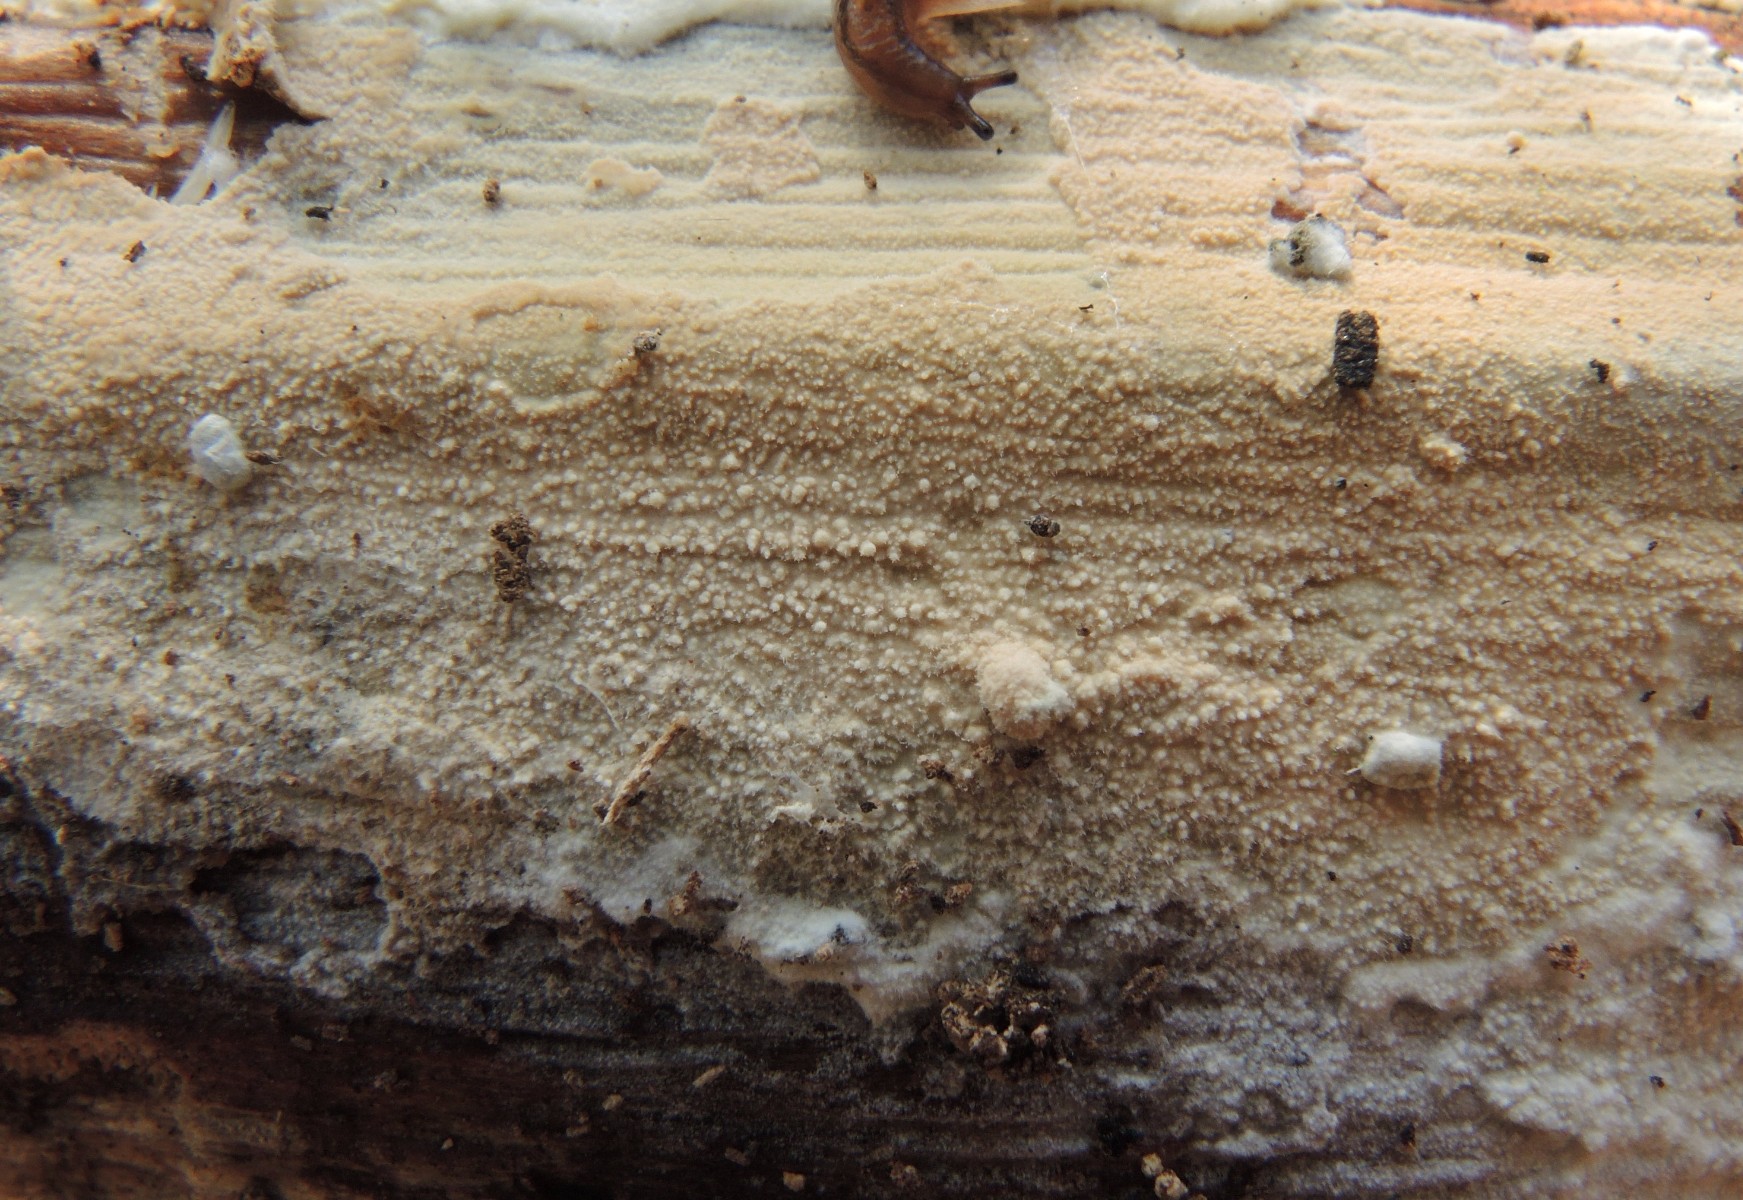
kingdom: Fungi
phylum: Basidiomycota
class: Agaricomycetes
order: Polyporales
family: Hyphodermataceae
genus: Hyphoderma
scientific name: Hyphoderma setigerum
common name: håret kalkskind
